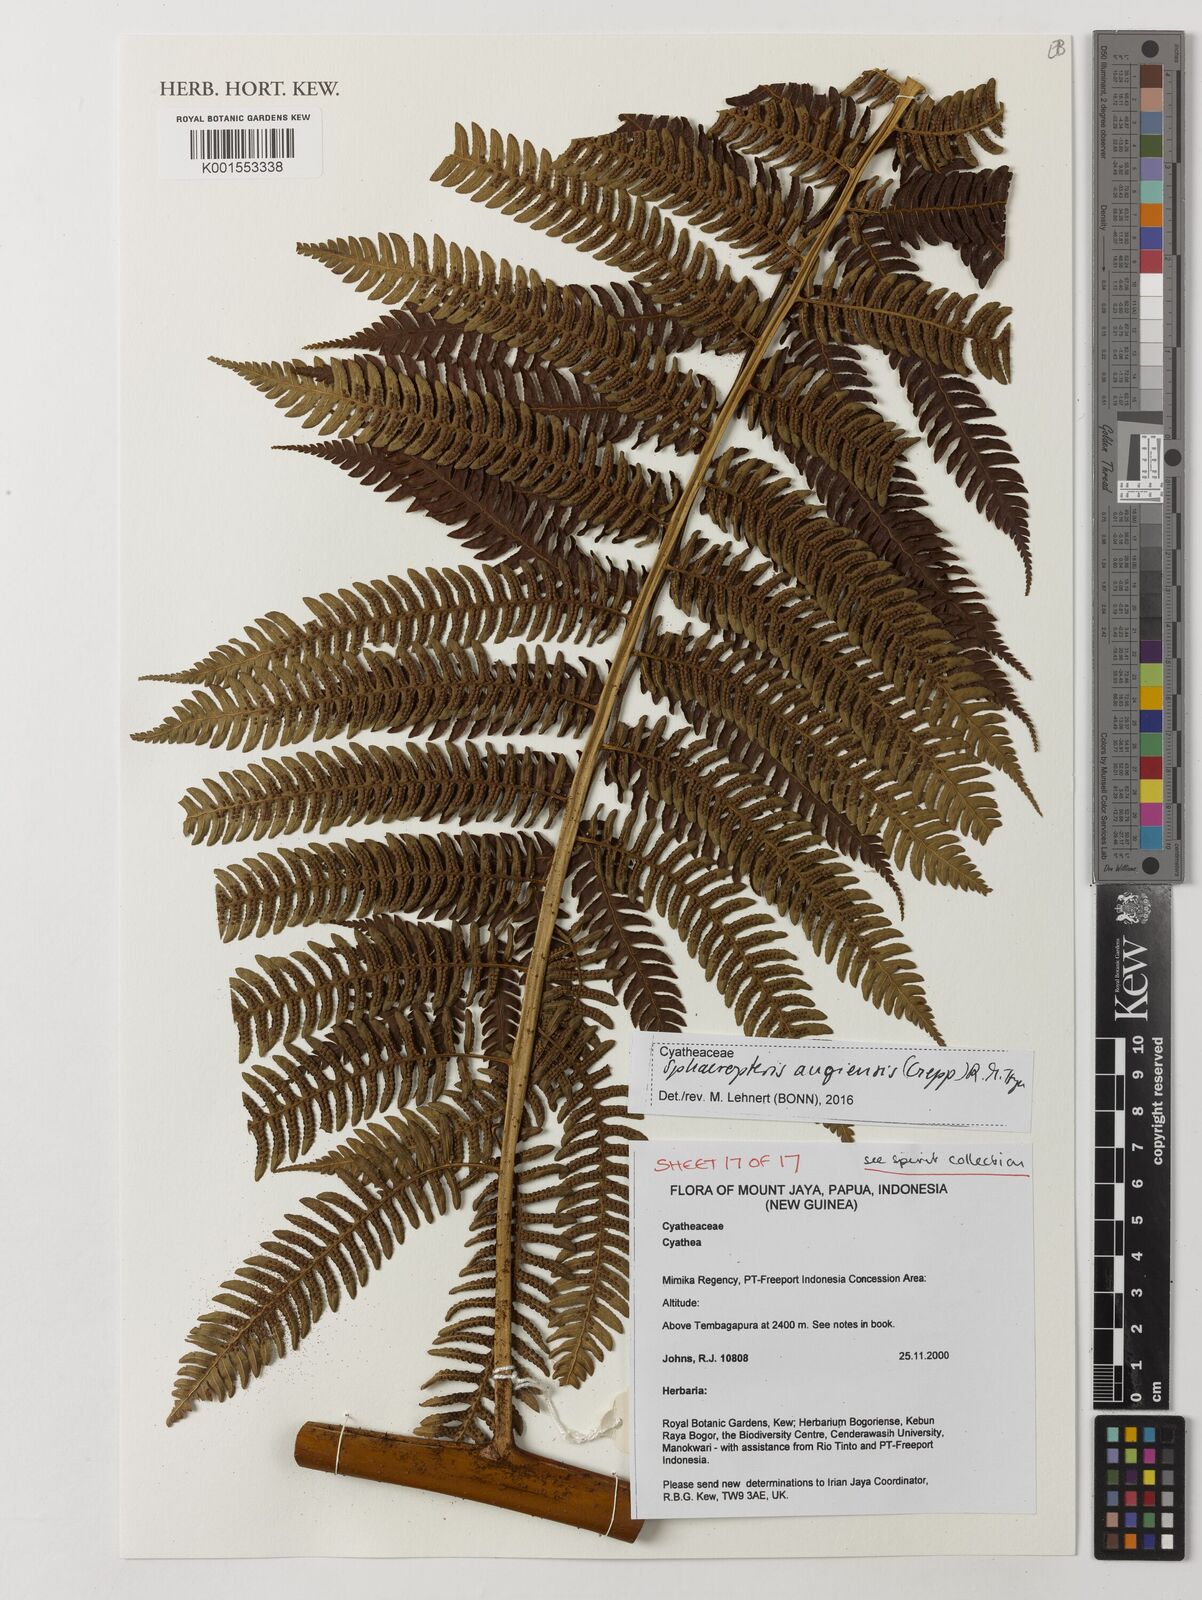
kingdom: Plantae
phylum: Tracheophyta
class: Polypodiopsida
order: Cyatheales
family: Cyatheaceae
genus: Sphaeropteris
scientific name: Sphaeropteris
